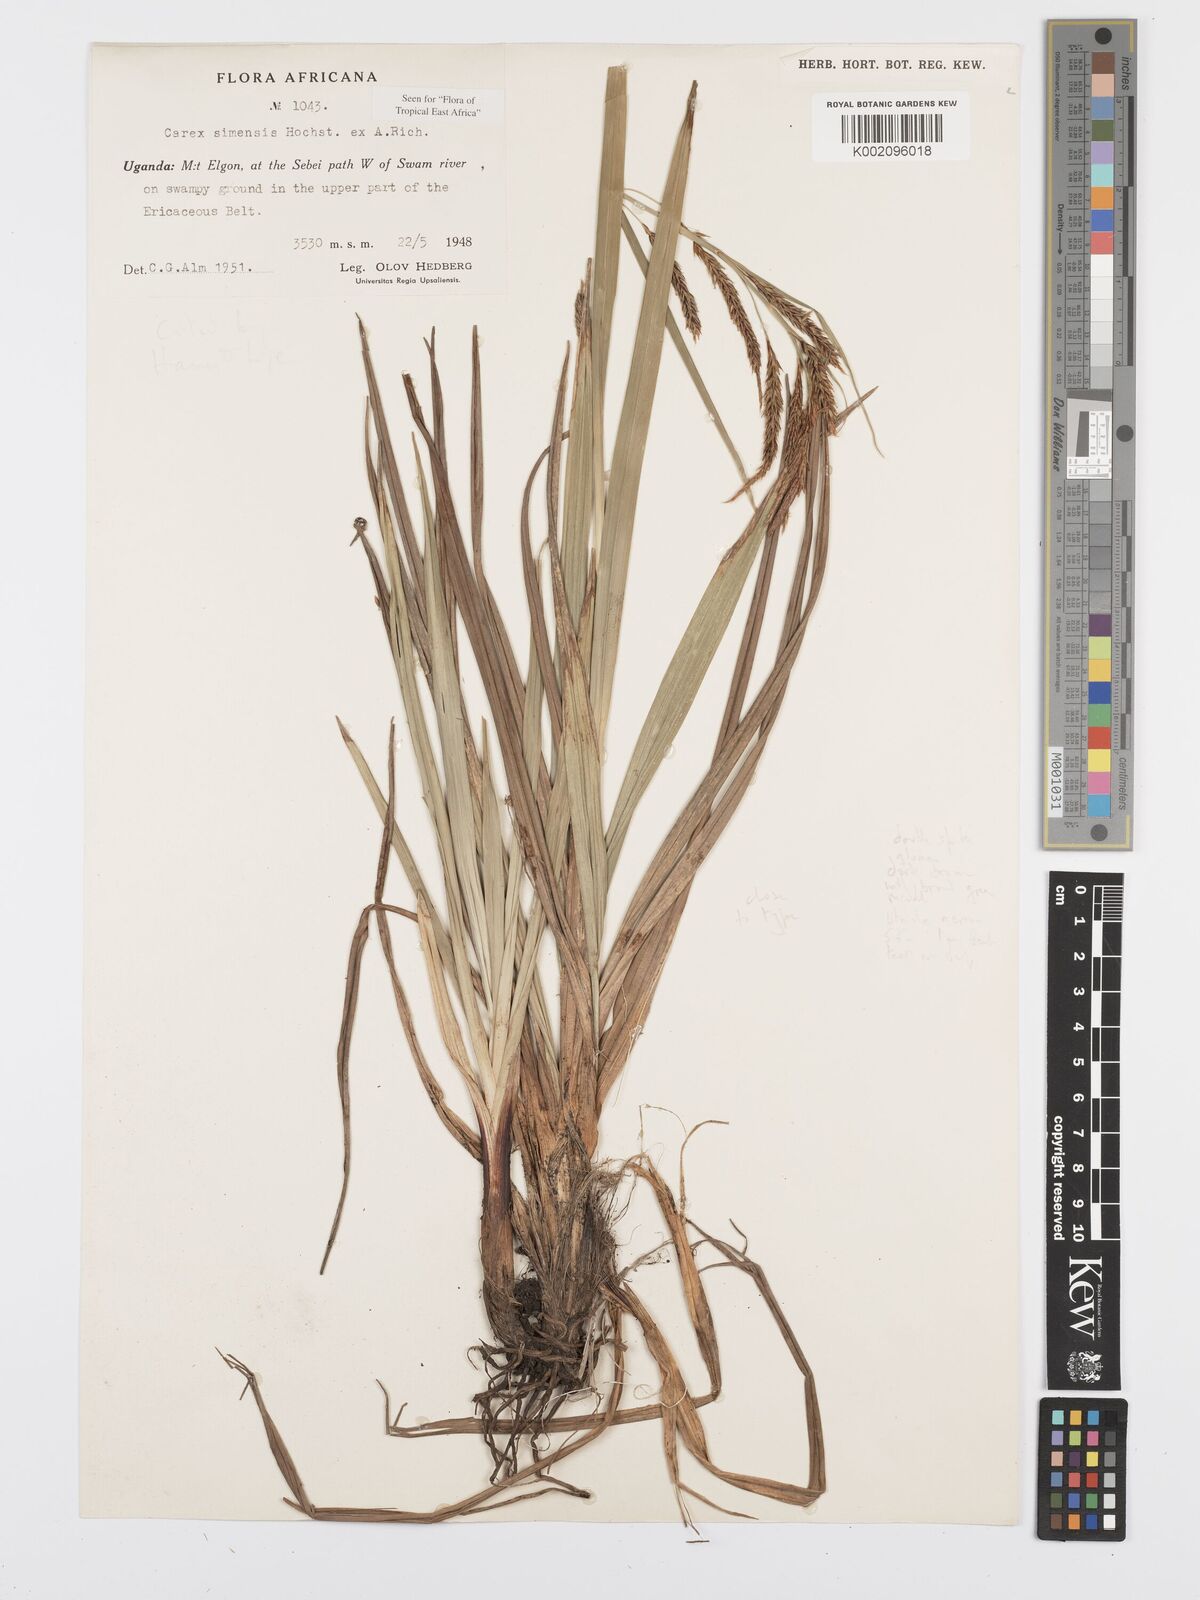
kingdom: Plantae
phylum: Tracheophyta
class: Liliopsida
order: Poales
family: Cyperaceae
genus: Carex
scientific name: Carex simensis
